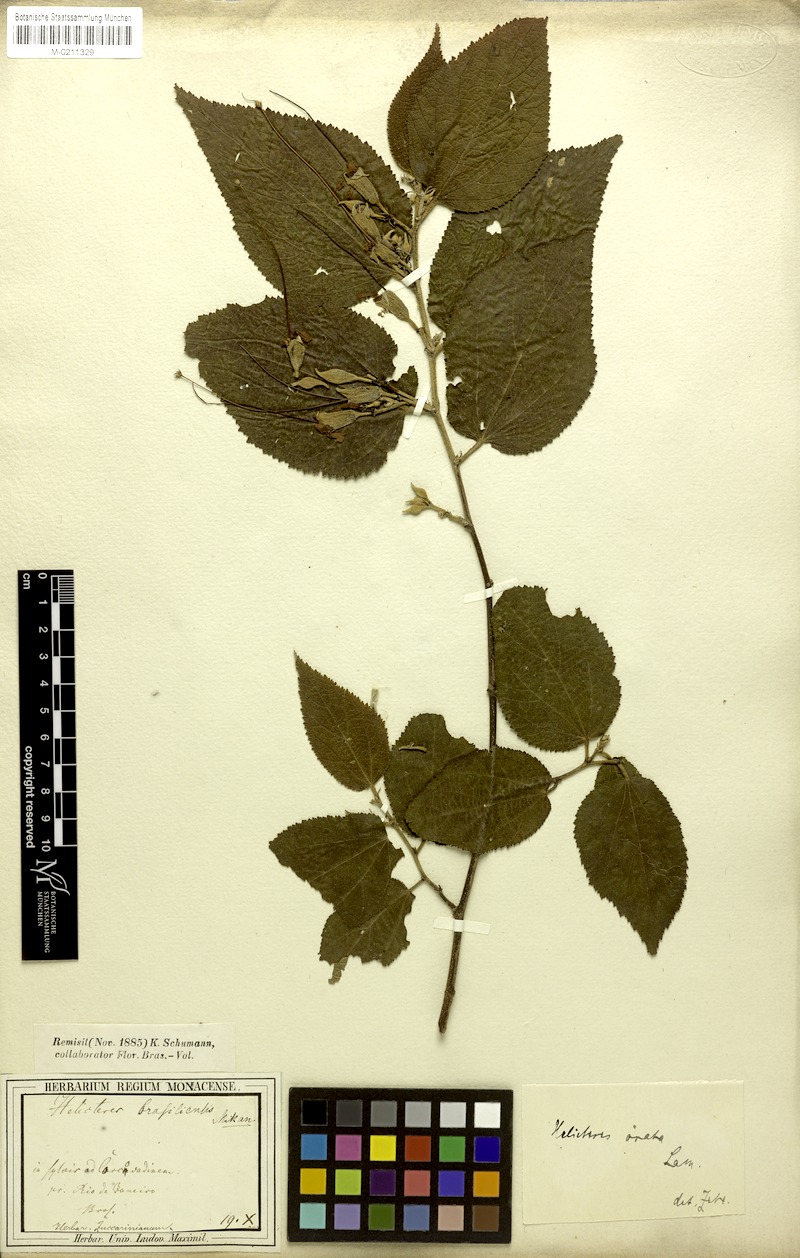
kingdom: Plantae
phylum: Tracheophyta
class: Magnoliopsida
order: Malvales
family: Malvaceae
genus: Helicteres
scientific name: Helicteres ovata
